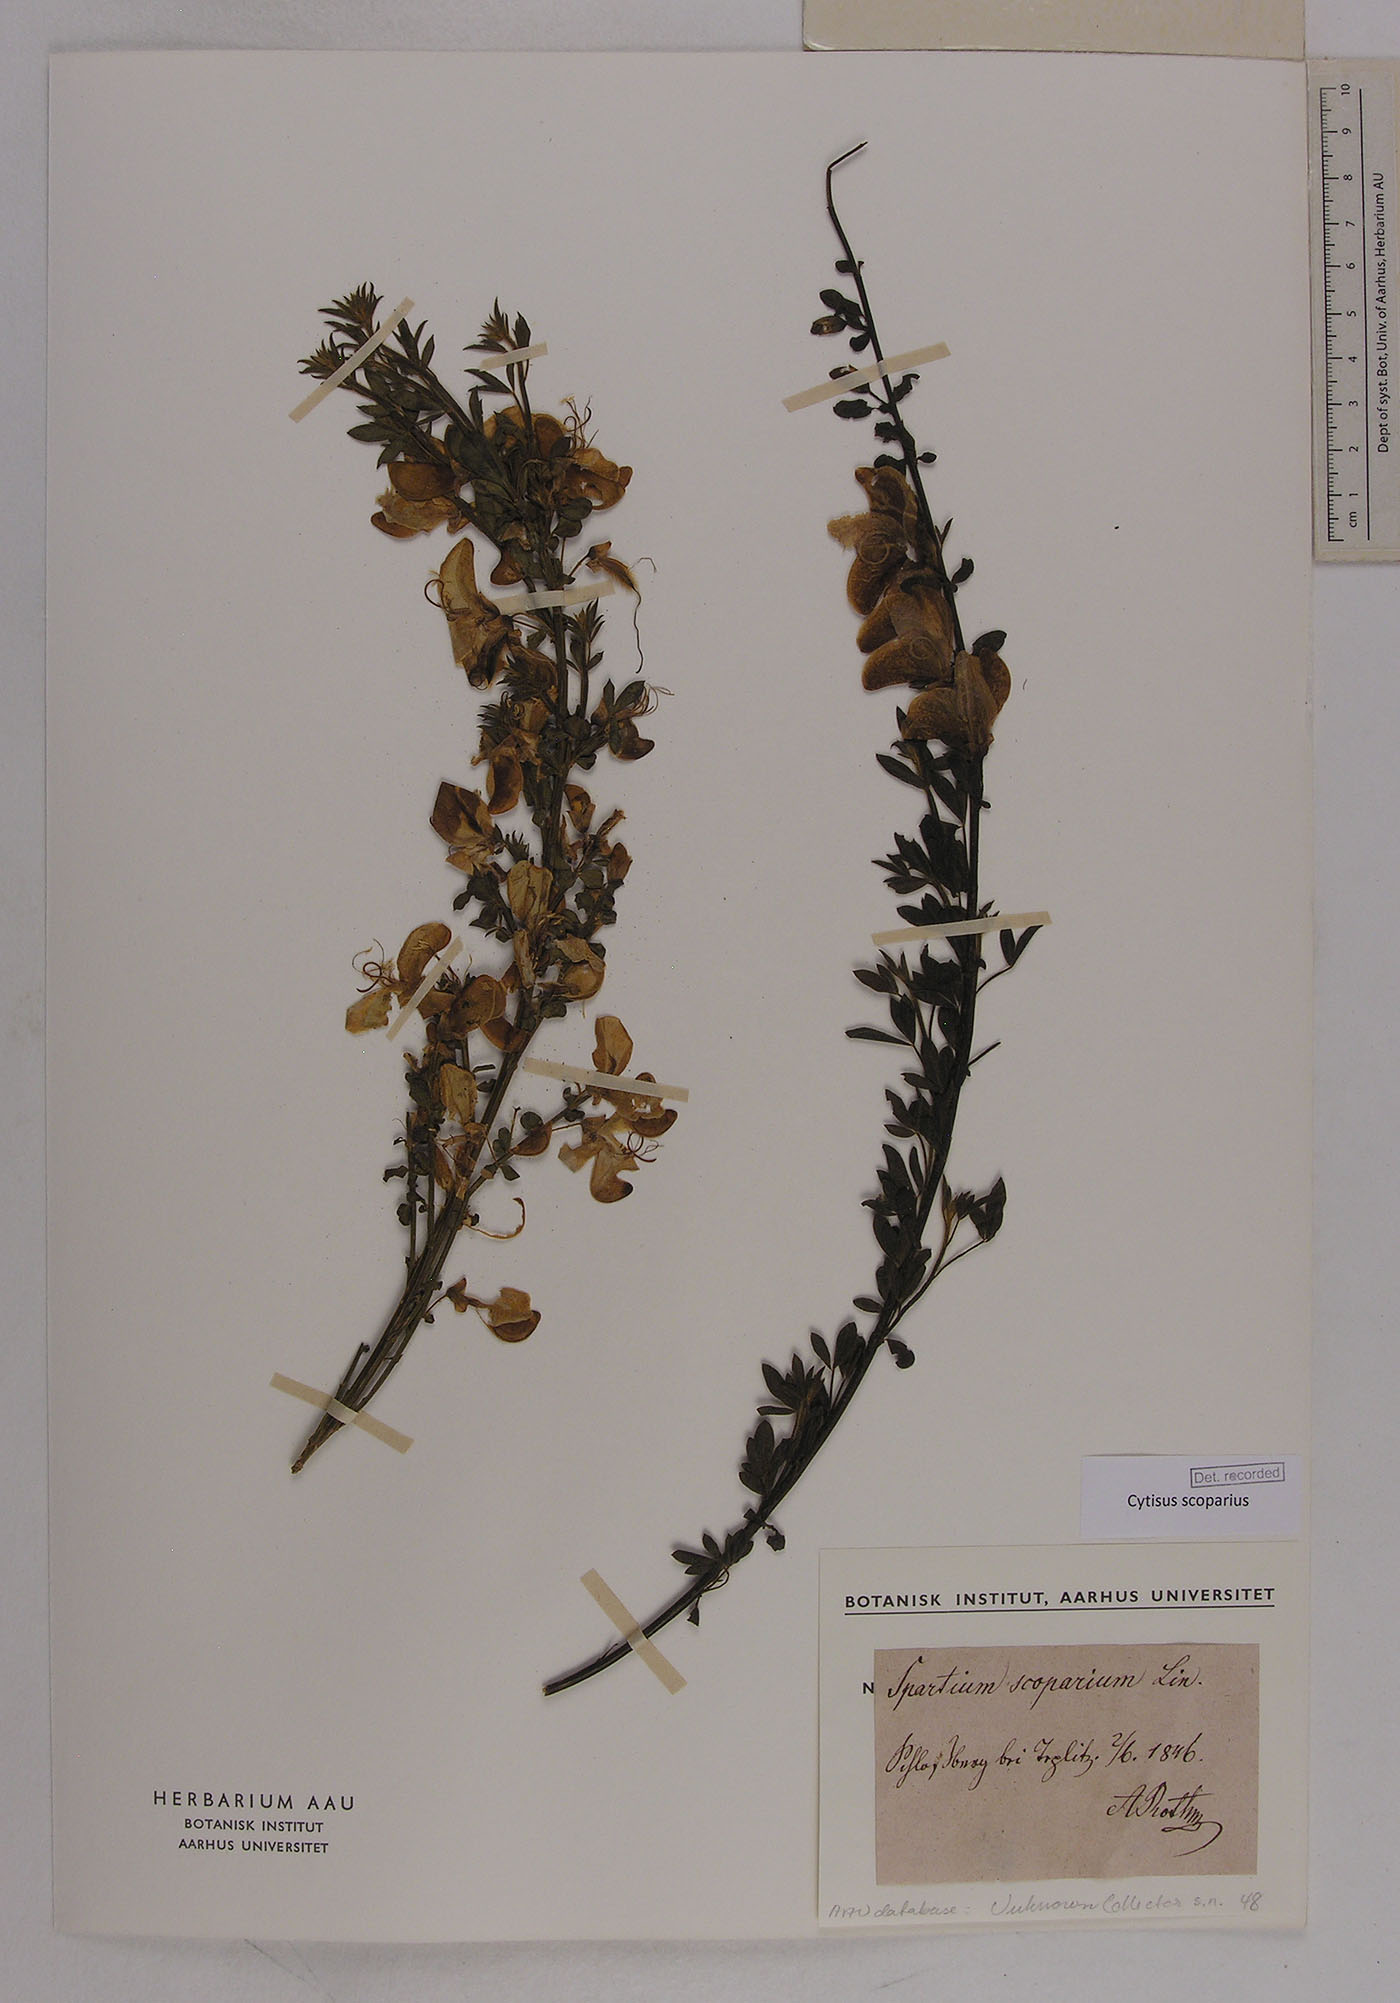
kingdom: Plantae
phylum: Tracheophyta
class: Magnoliopsida
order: Fabales
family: Fabaceae
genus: Cytisus
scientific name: Cytisus scoparius
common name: Scotch broom
